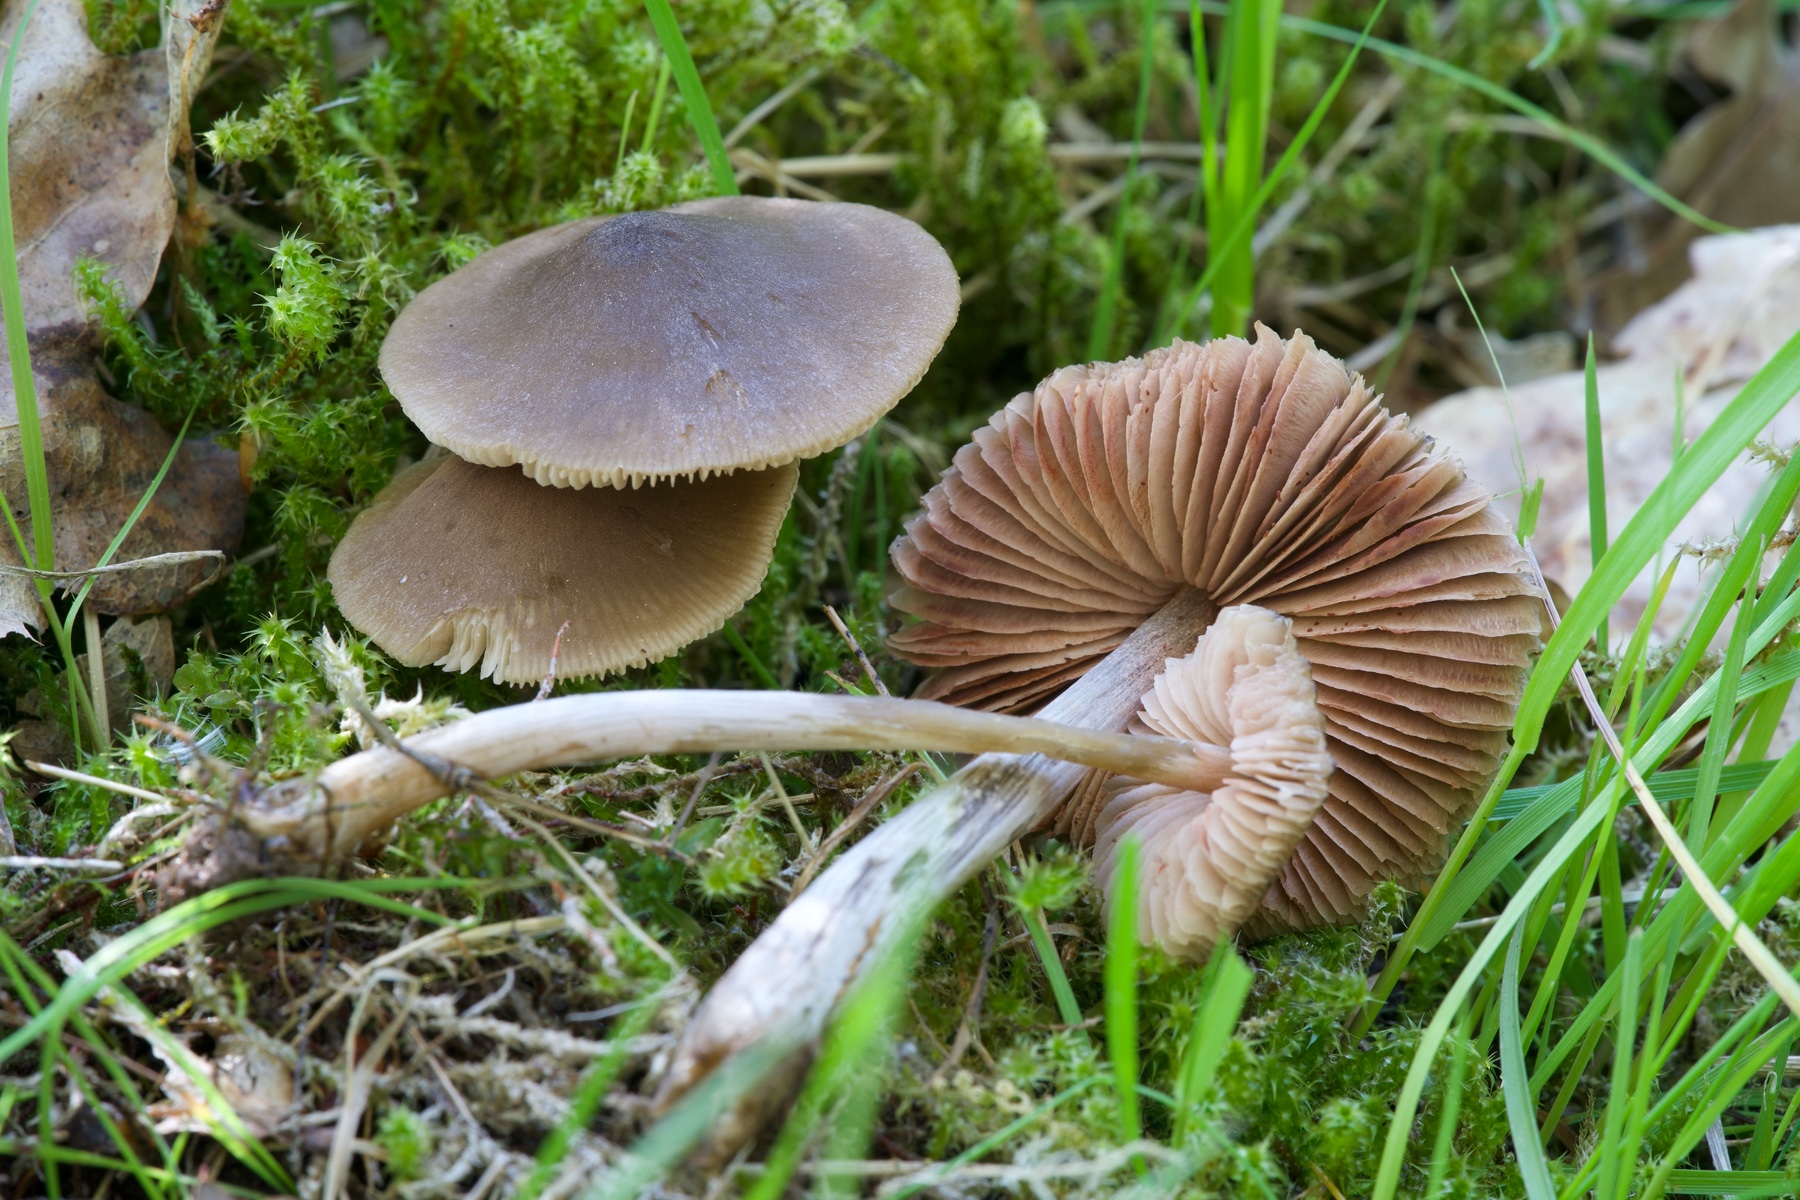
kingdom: Fungi
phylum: Basidiomycota
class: Agaricomycetes
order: Agaricales
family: Entolomataceae
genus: Entoloma
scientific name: Entoloma conferendum
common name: stjernesporet rødblad
